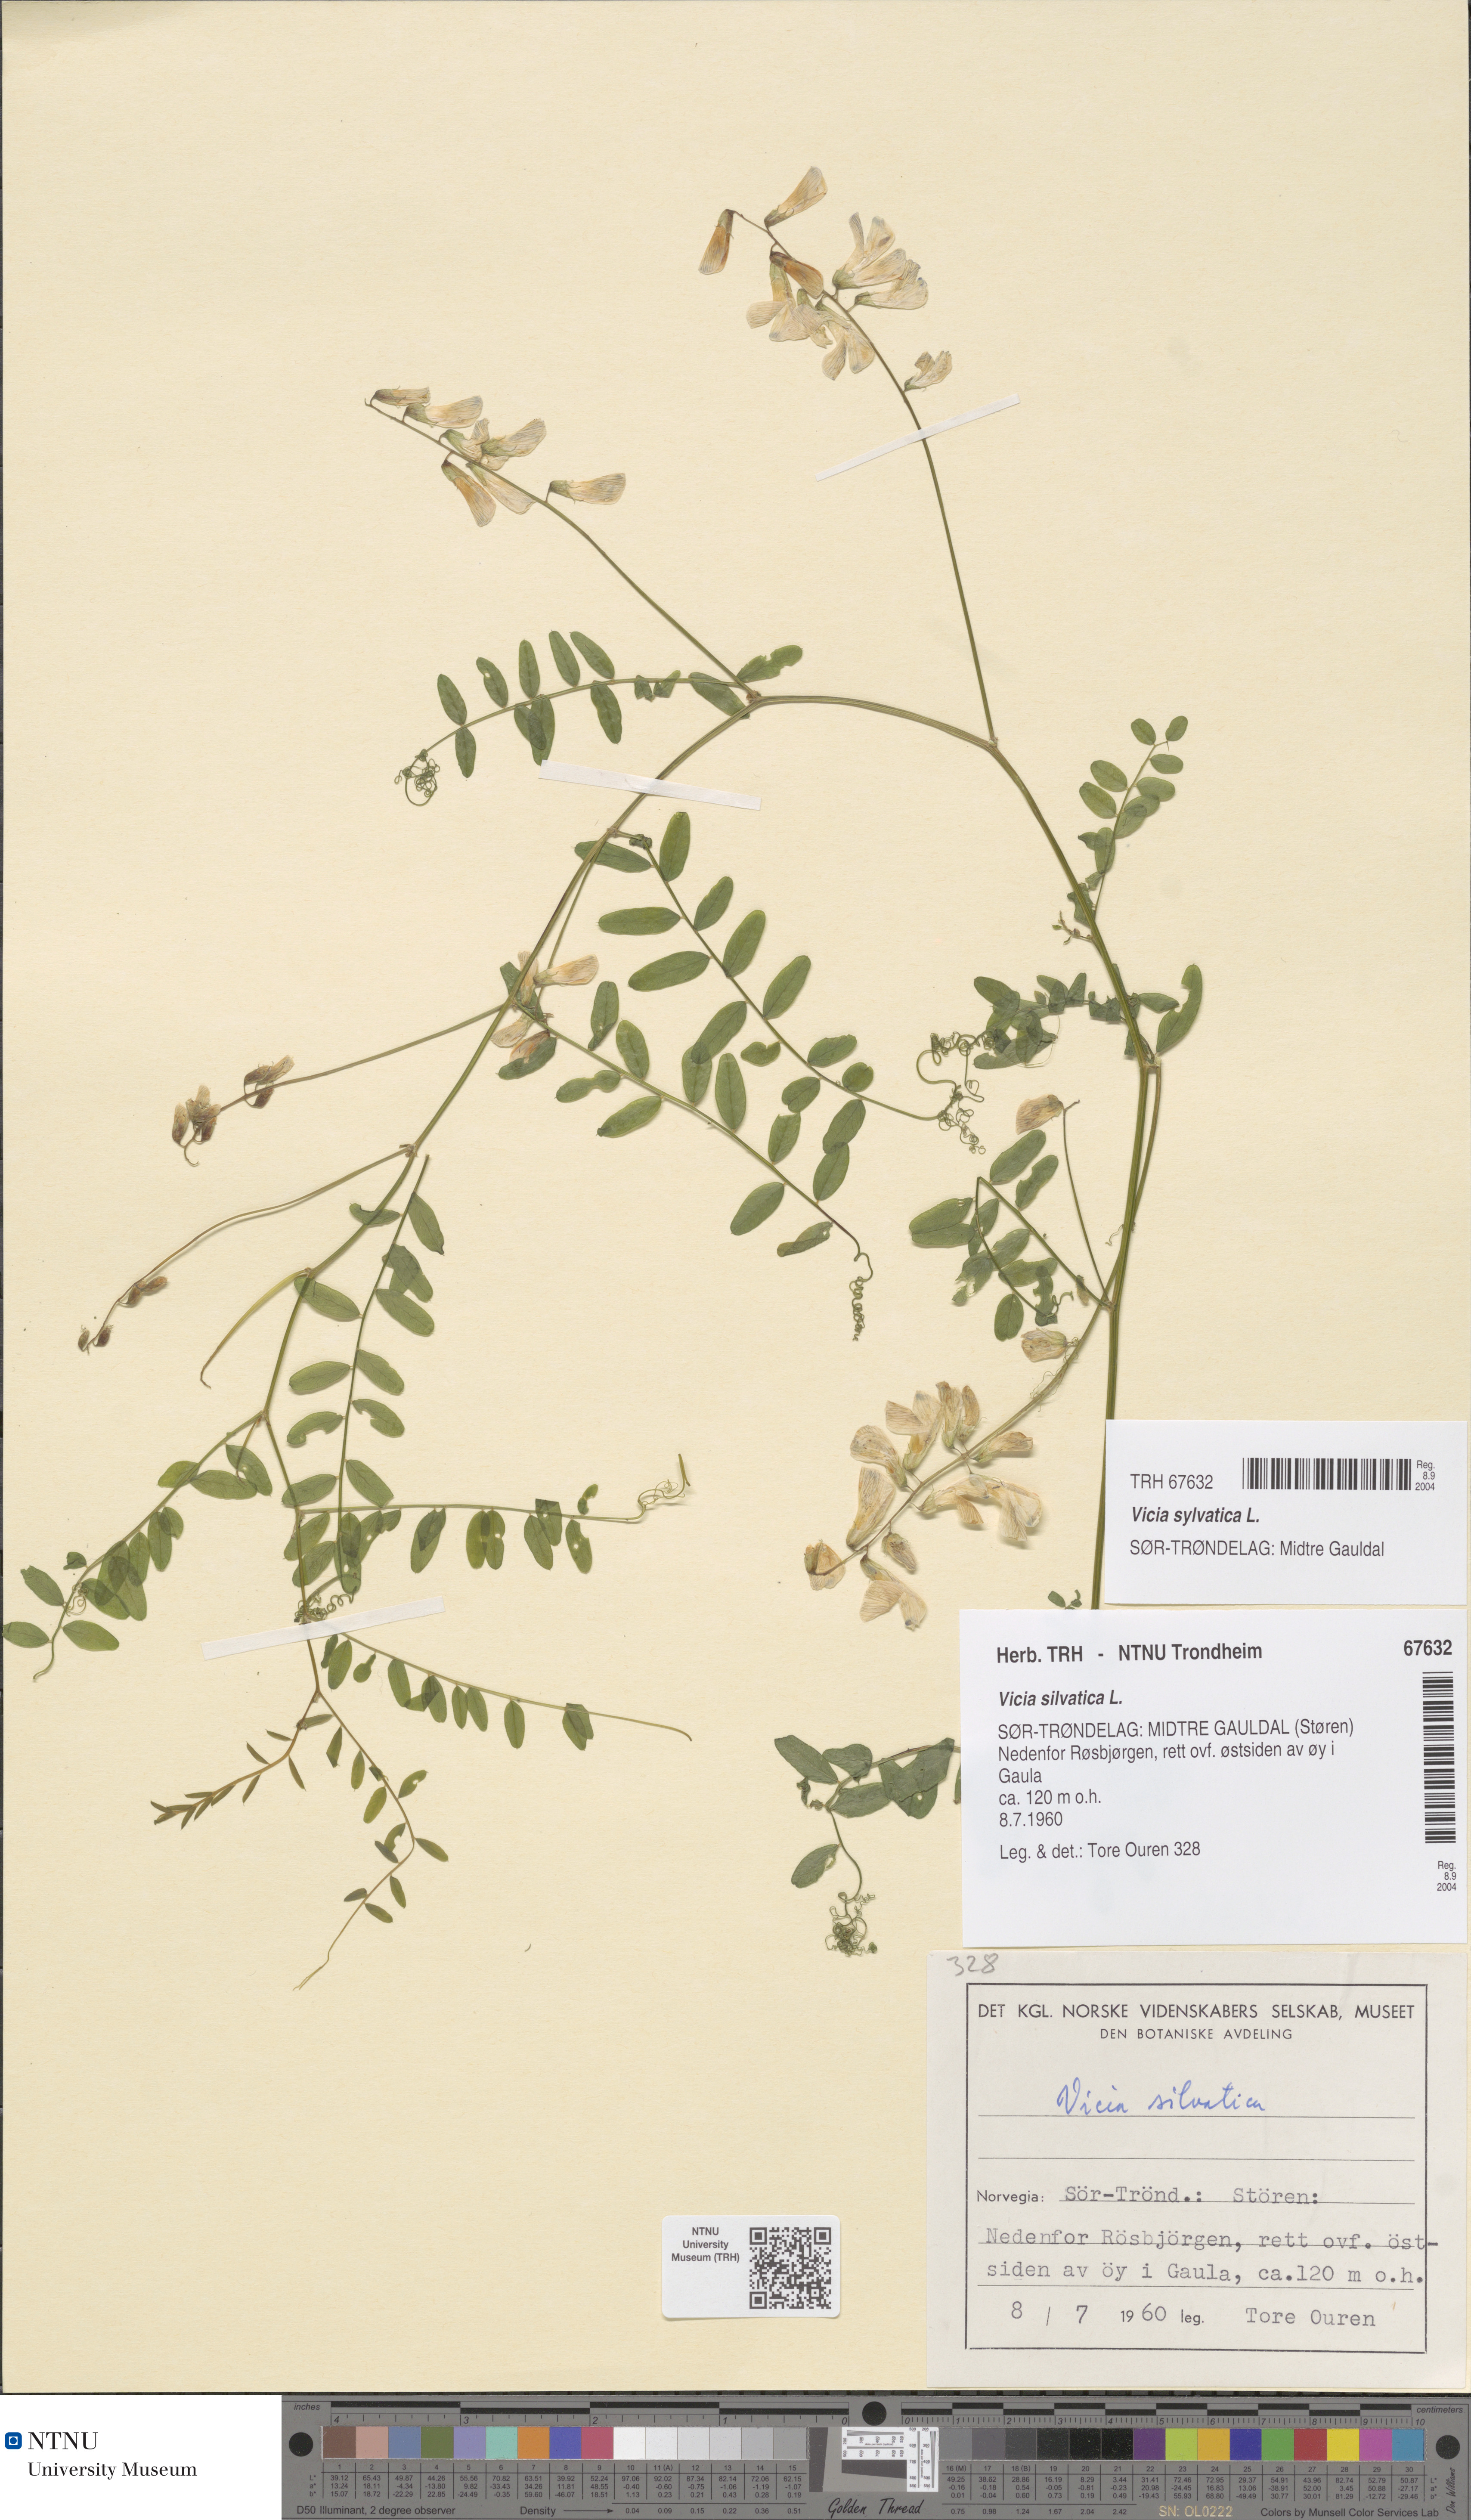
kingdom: Plantae
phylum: Tracheophyta
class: Magnoliopsida
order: Fabales
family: Fabaceae
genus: Vicia
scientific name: Vicia sylvatica
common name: Wood vetch
